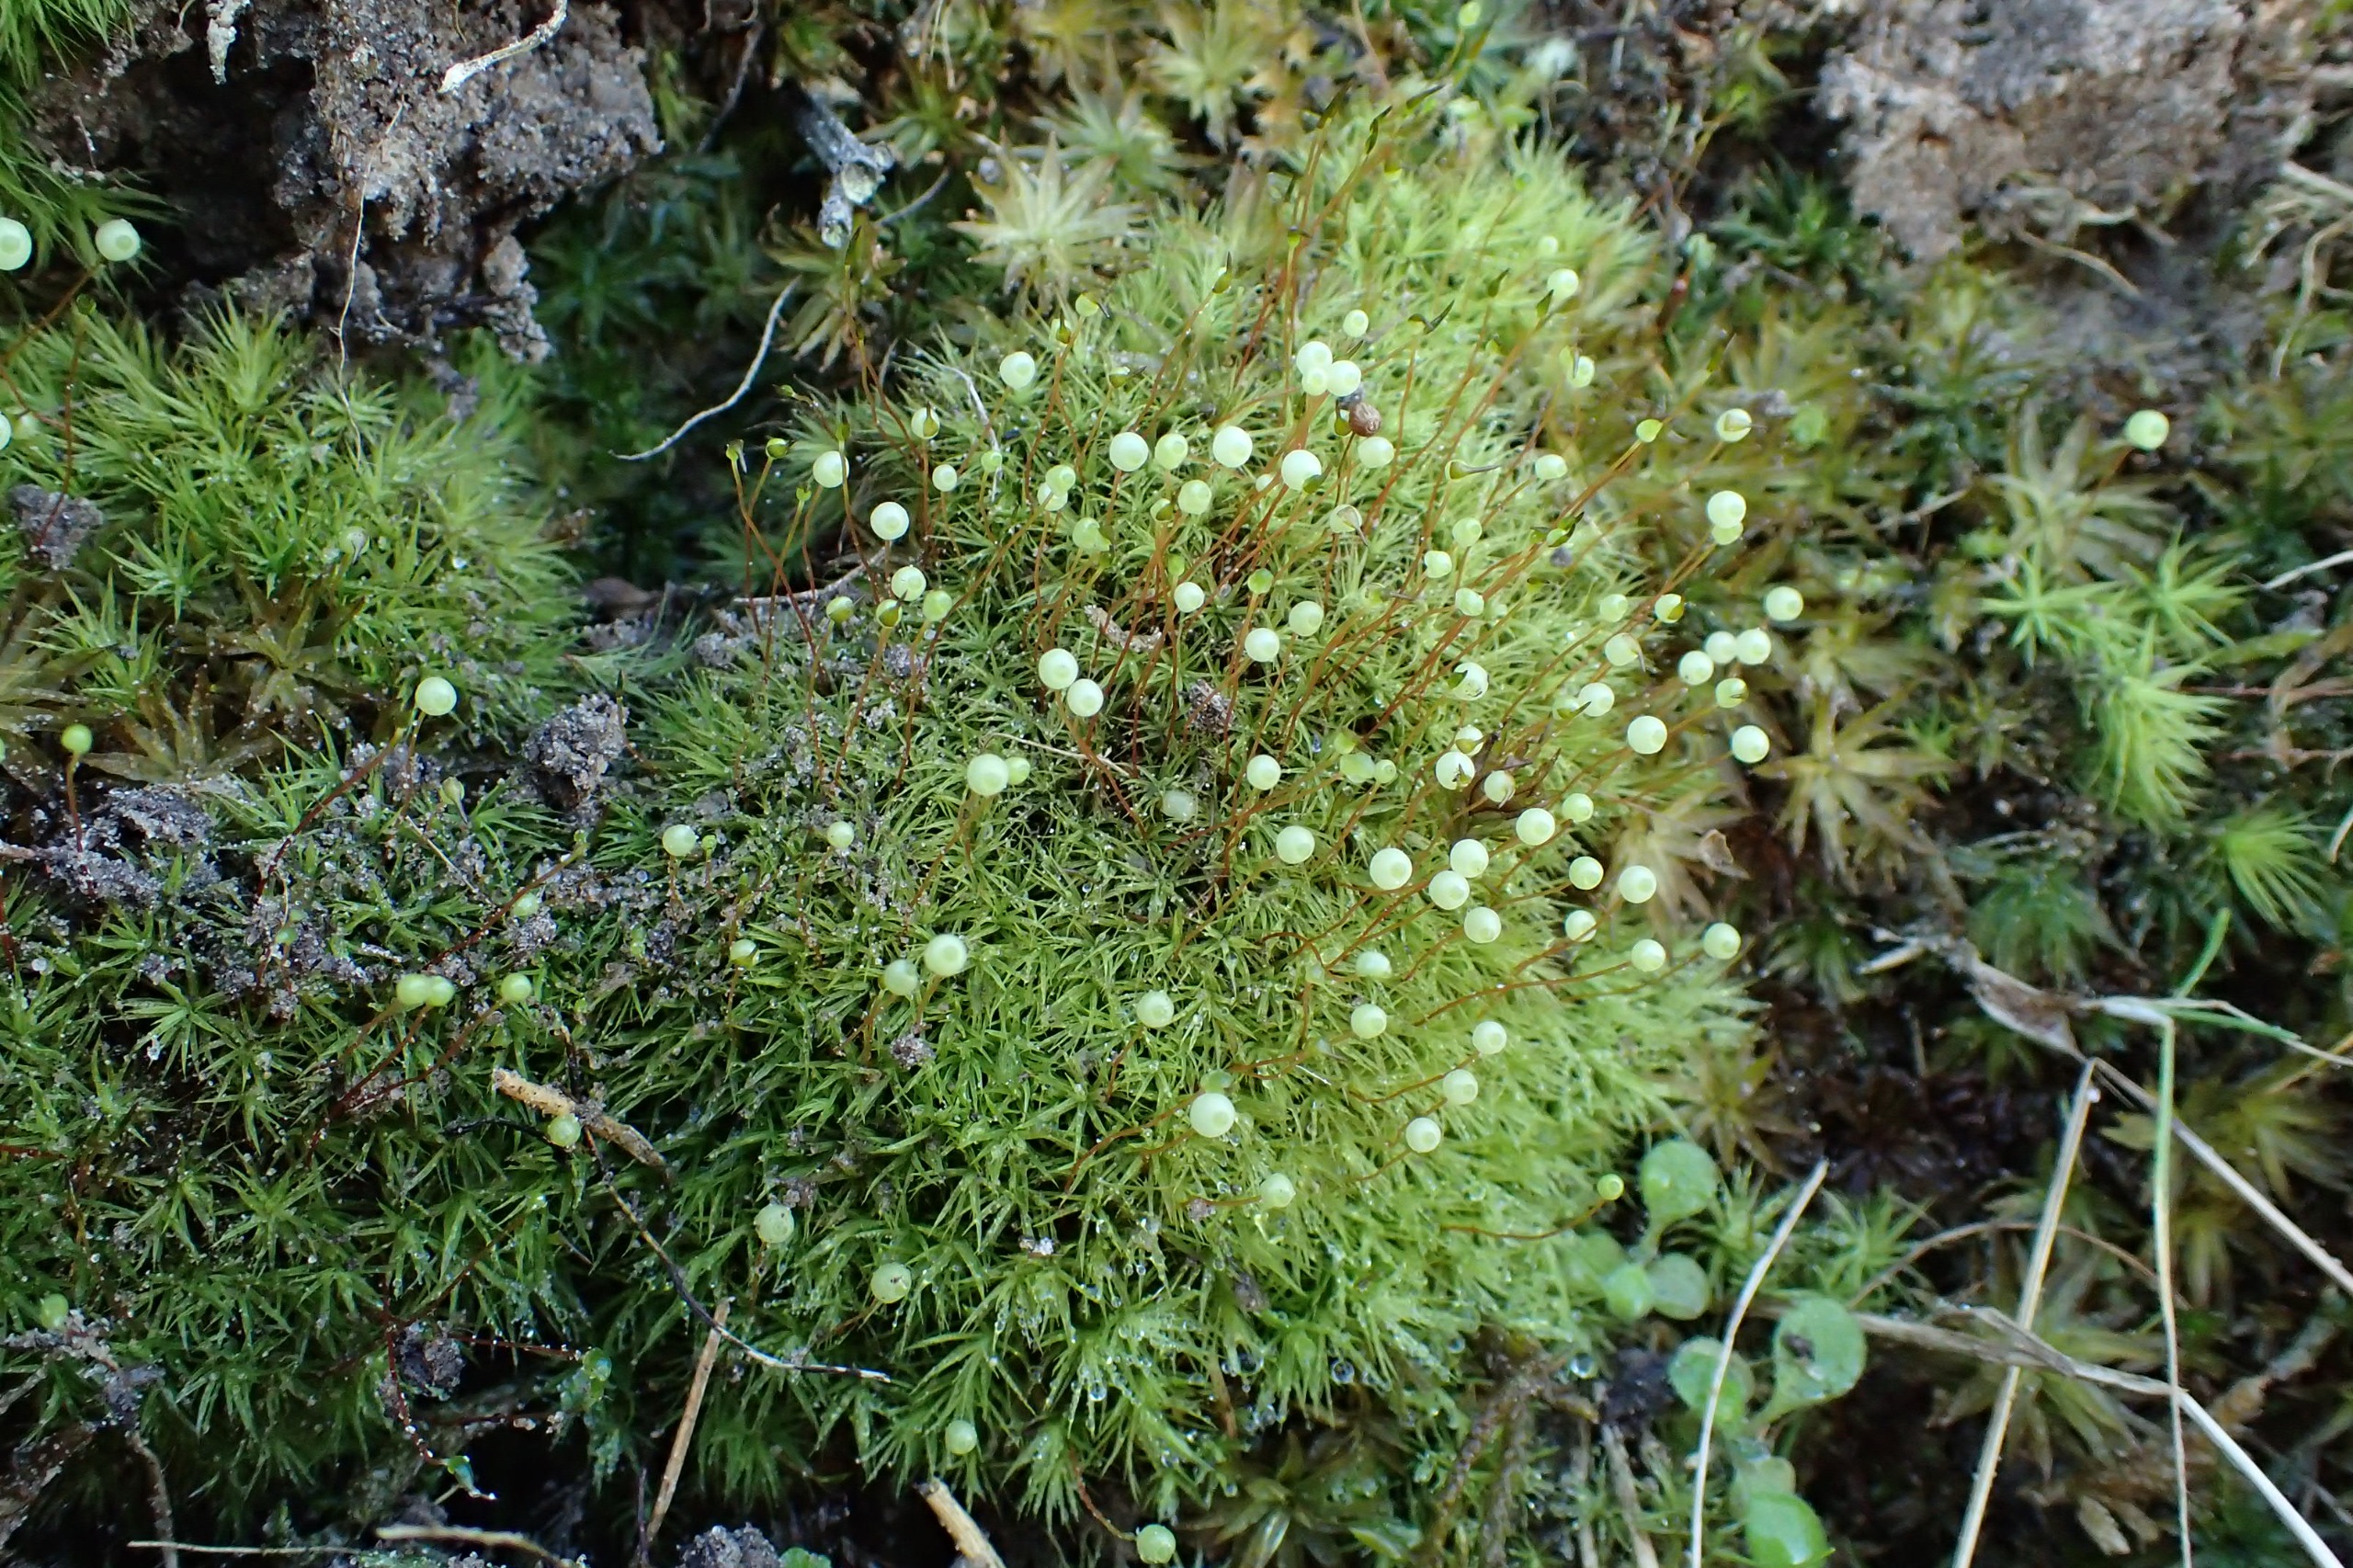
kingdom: Plantae
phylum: Bryophyta
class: Bryopsida
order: Bartramiales
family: Bartramiaceae
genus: Bartramia
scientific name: Bartramia pomiformis
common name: Gulgrøn kuglekapsel
